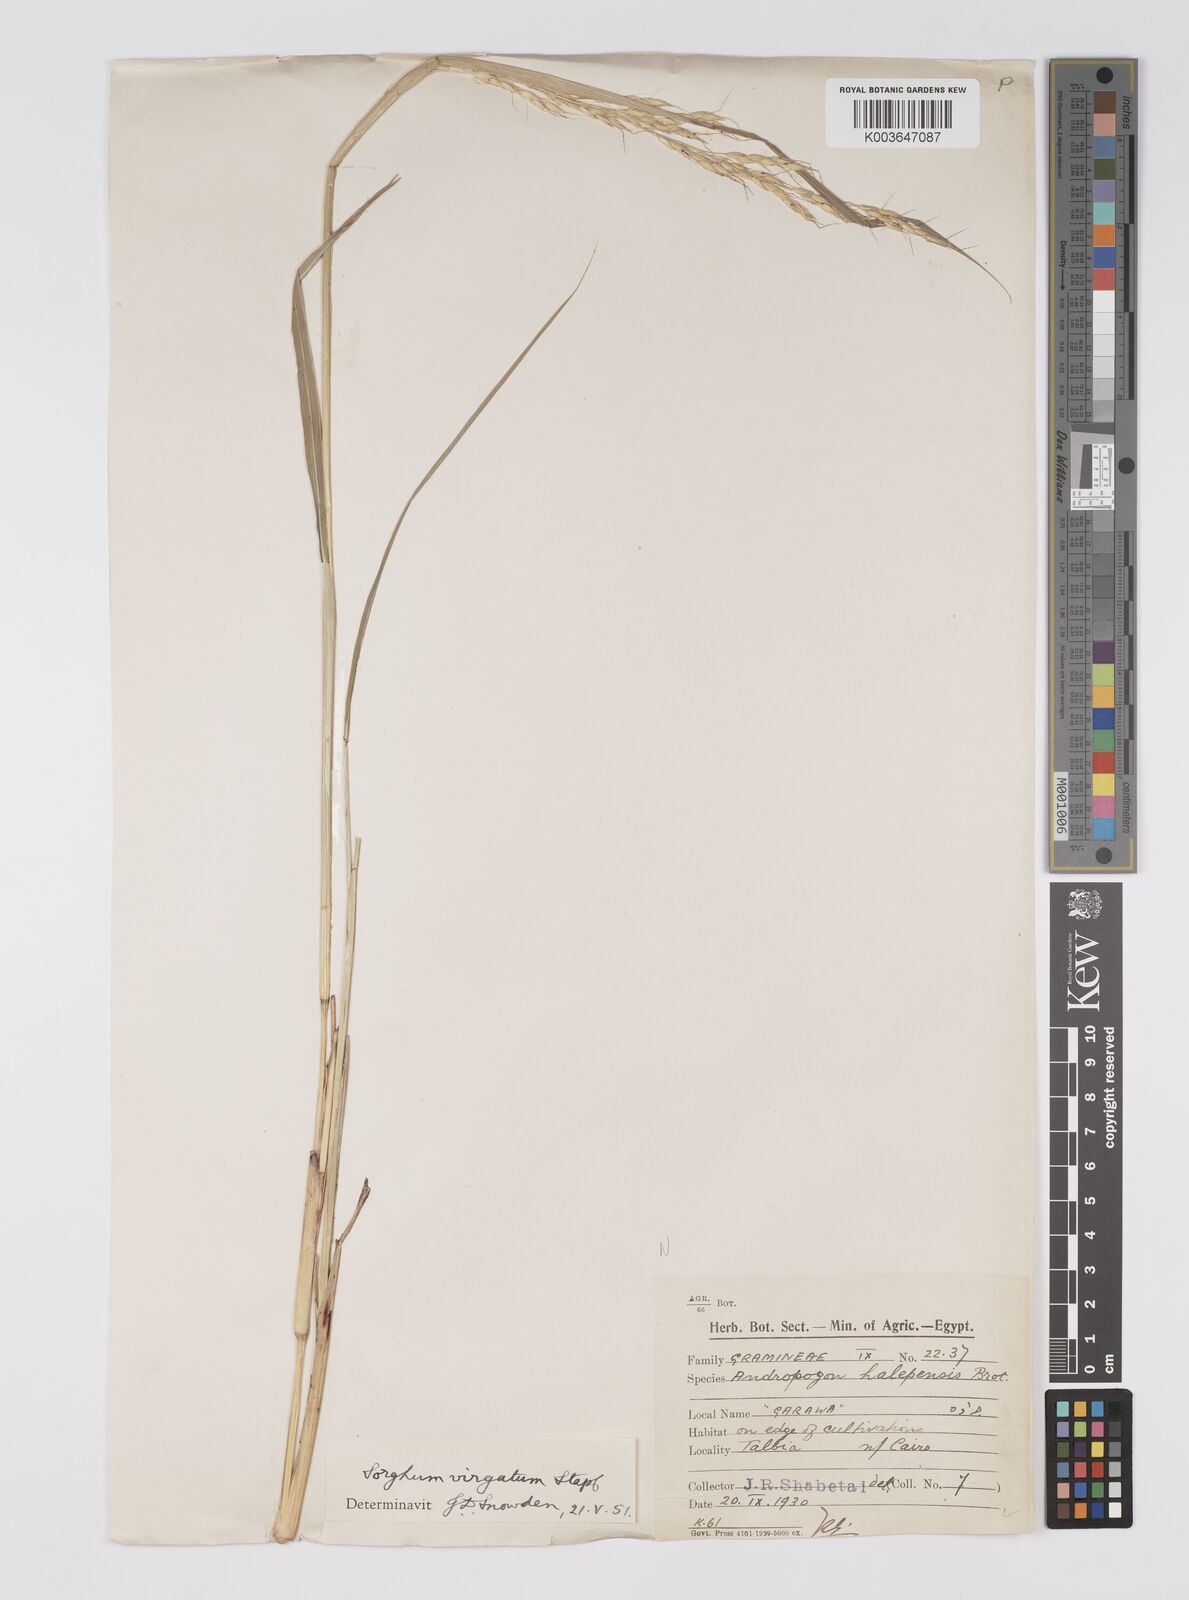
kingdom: Plantae
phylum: Tracheophyta
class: Liliopsida
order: Poales
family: Poaceae
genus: Sorghum
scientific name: Sorghum virgatum
